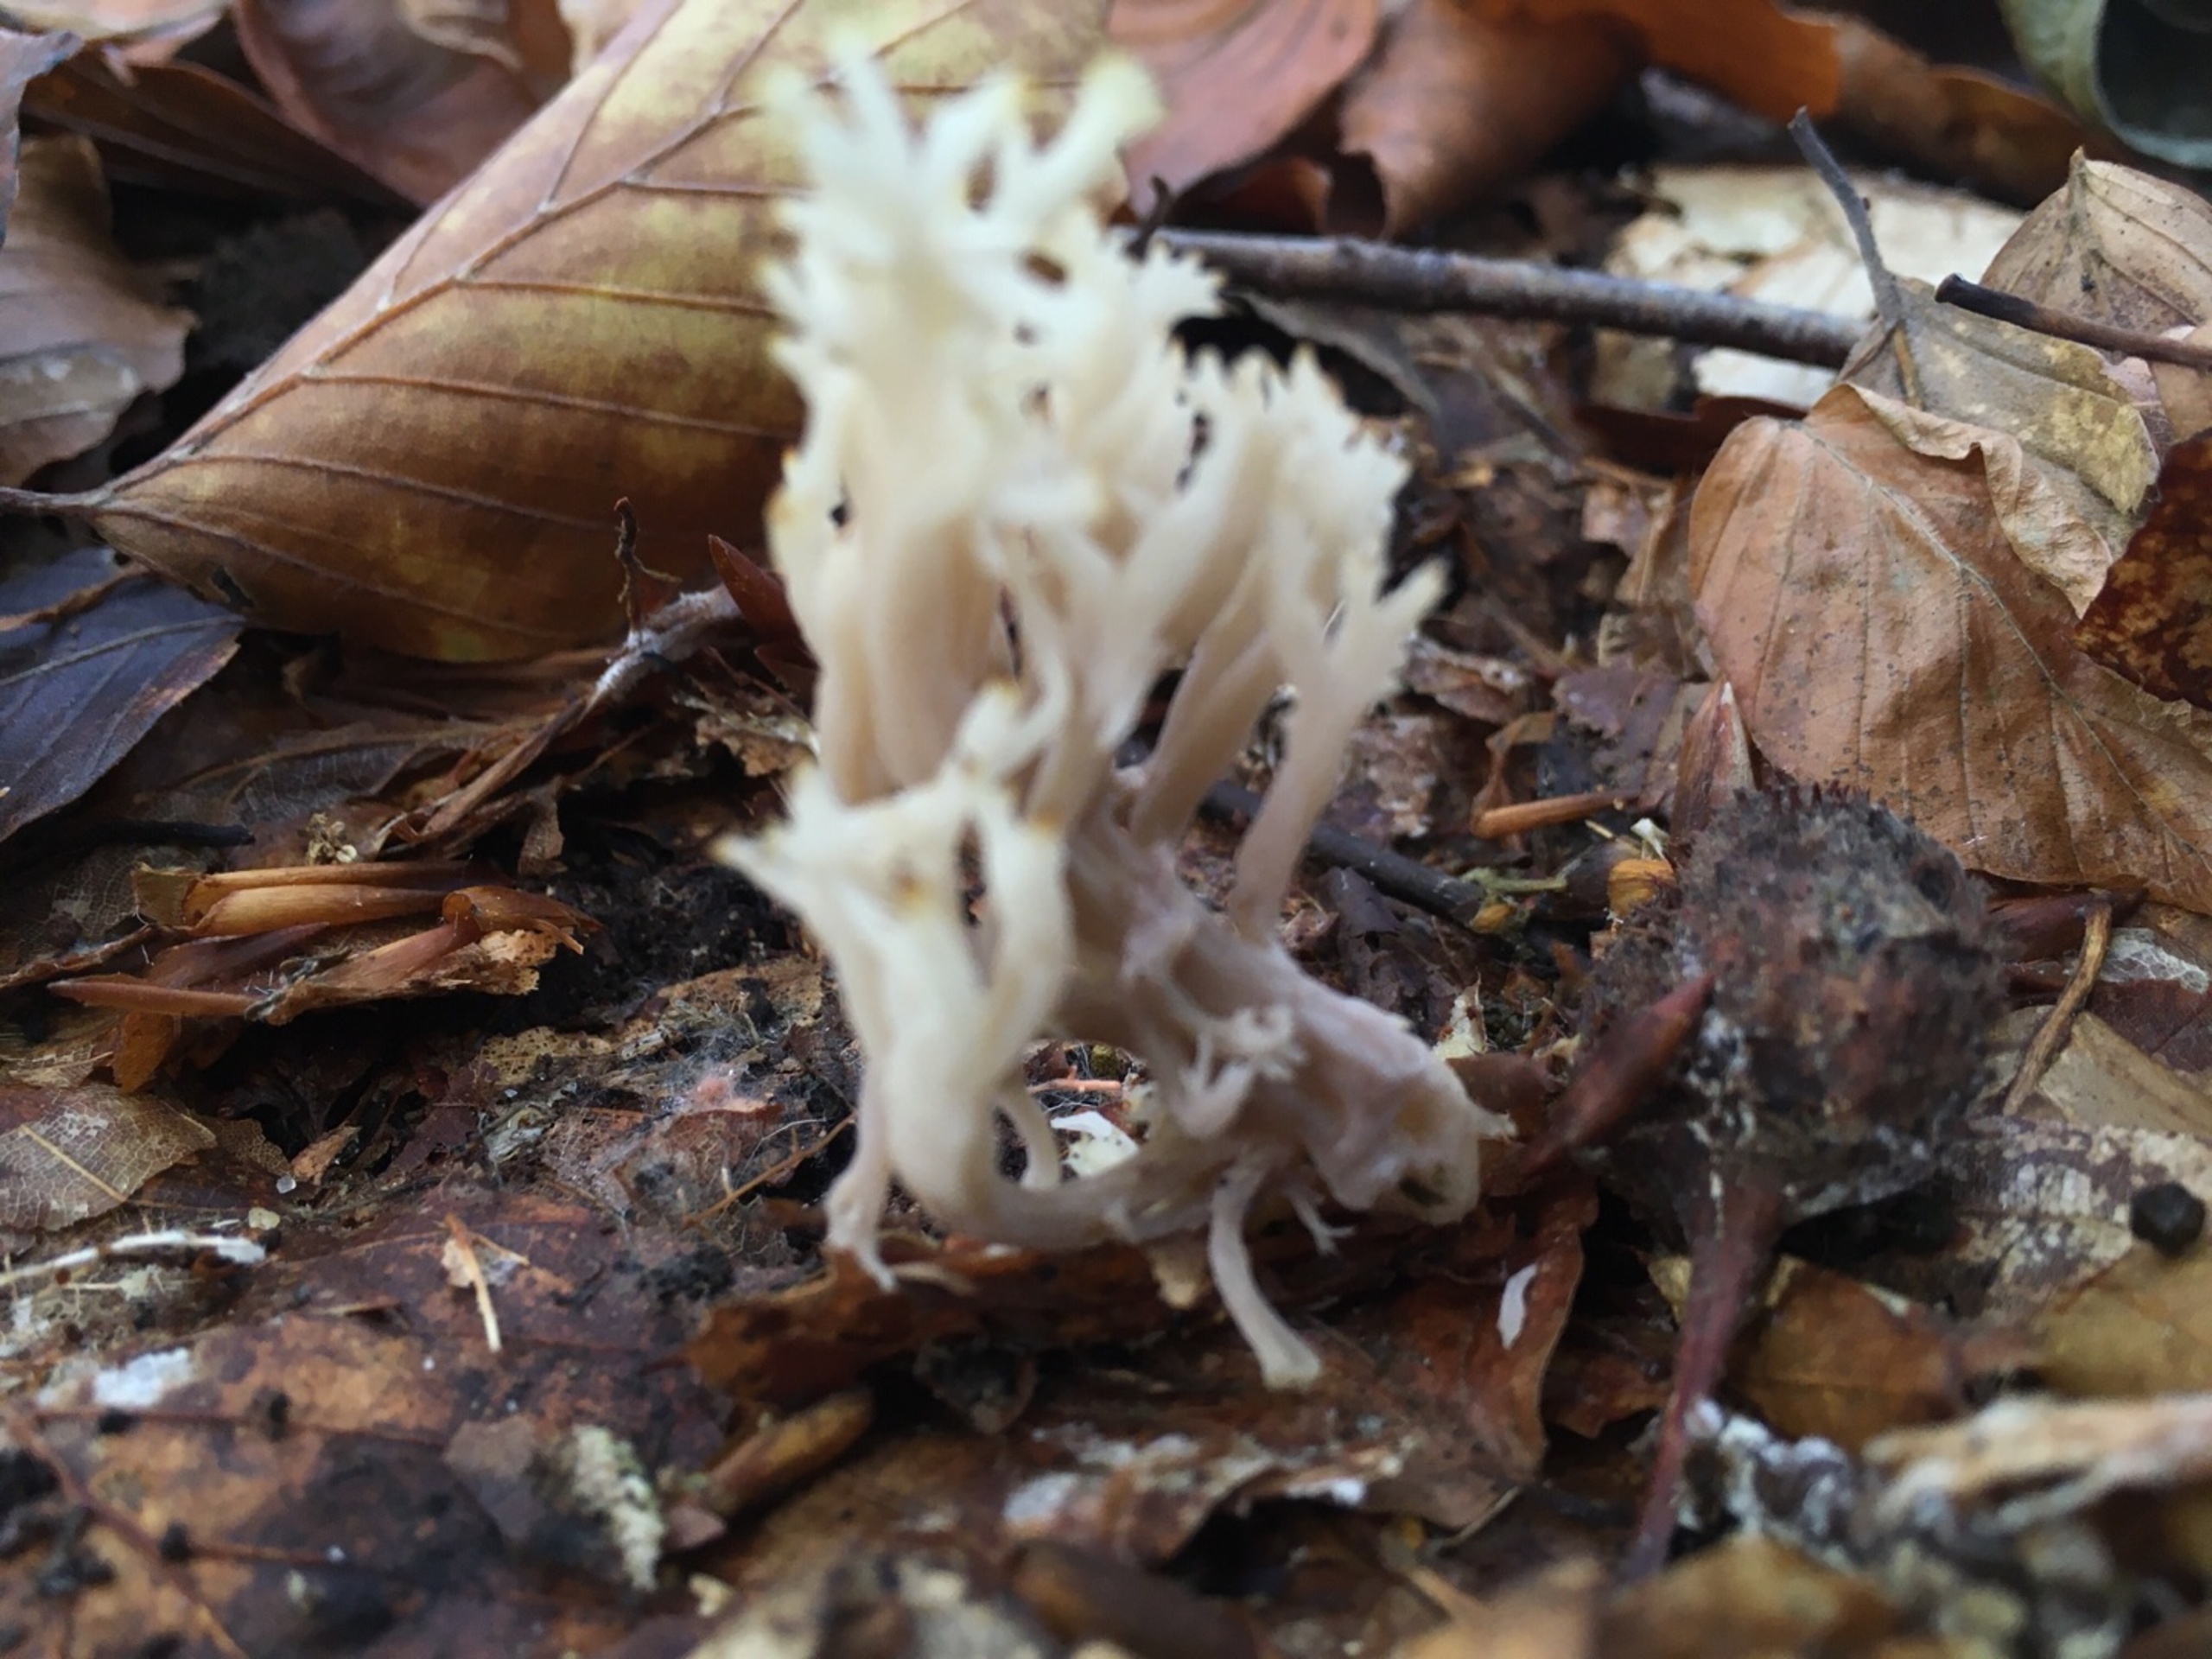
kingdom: Fungi
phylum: Basidiomycota
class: Agaricomycetes
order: Cantharellales
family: Hydnaceae
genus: Clavulina
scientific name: Clavulina
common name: Troldkølle
